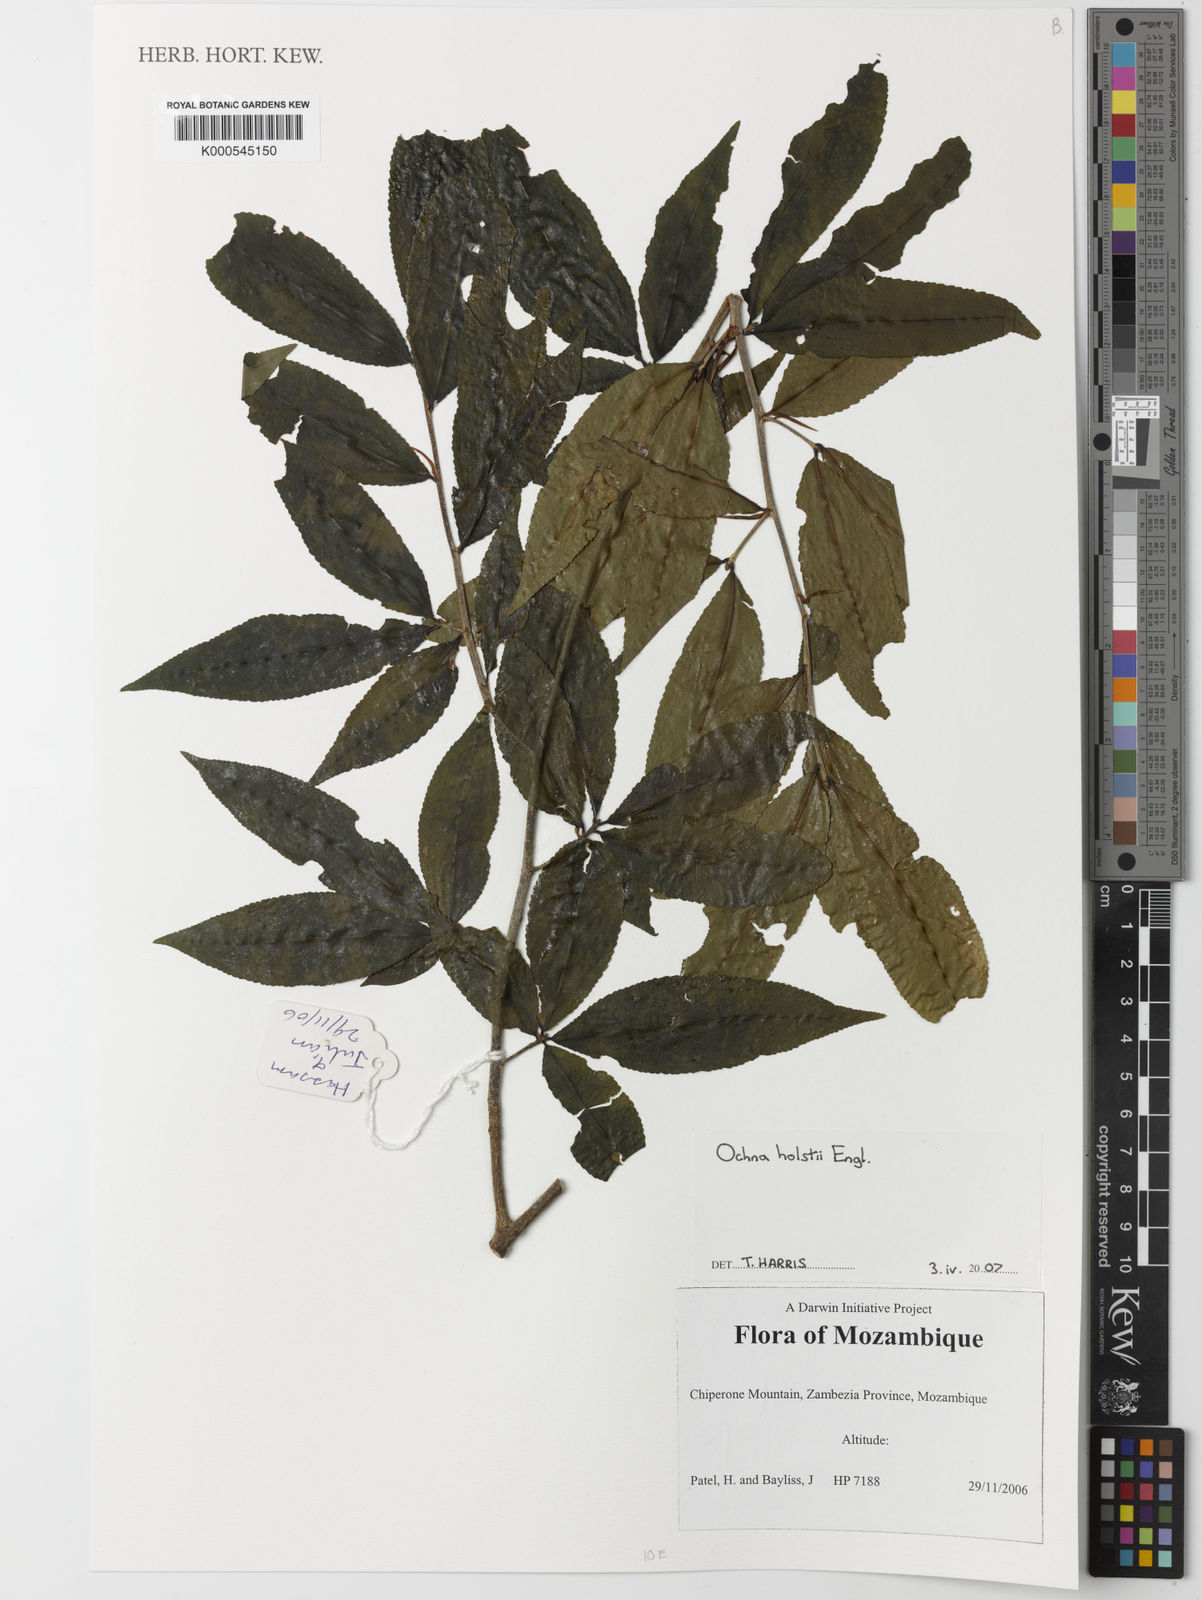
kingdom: Plantae
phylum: Tracheophyta
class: Magnoliopsida
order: Malpighiales
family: Ochnaceae
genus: Ochna
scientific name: Ochna holstii
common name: Red ironwood
